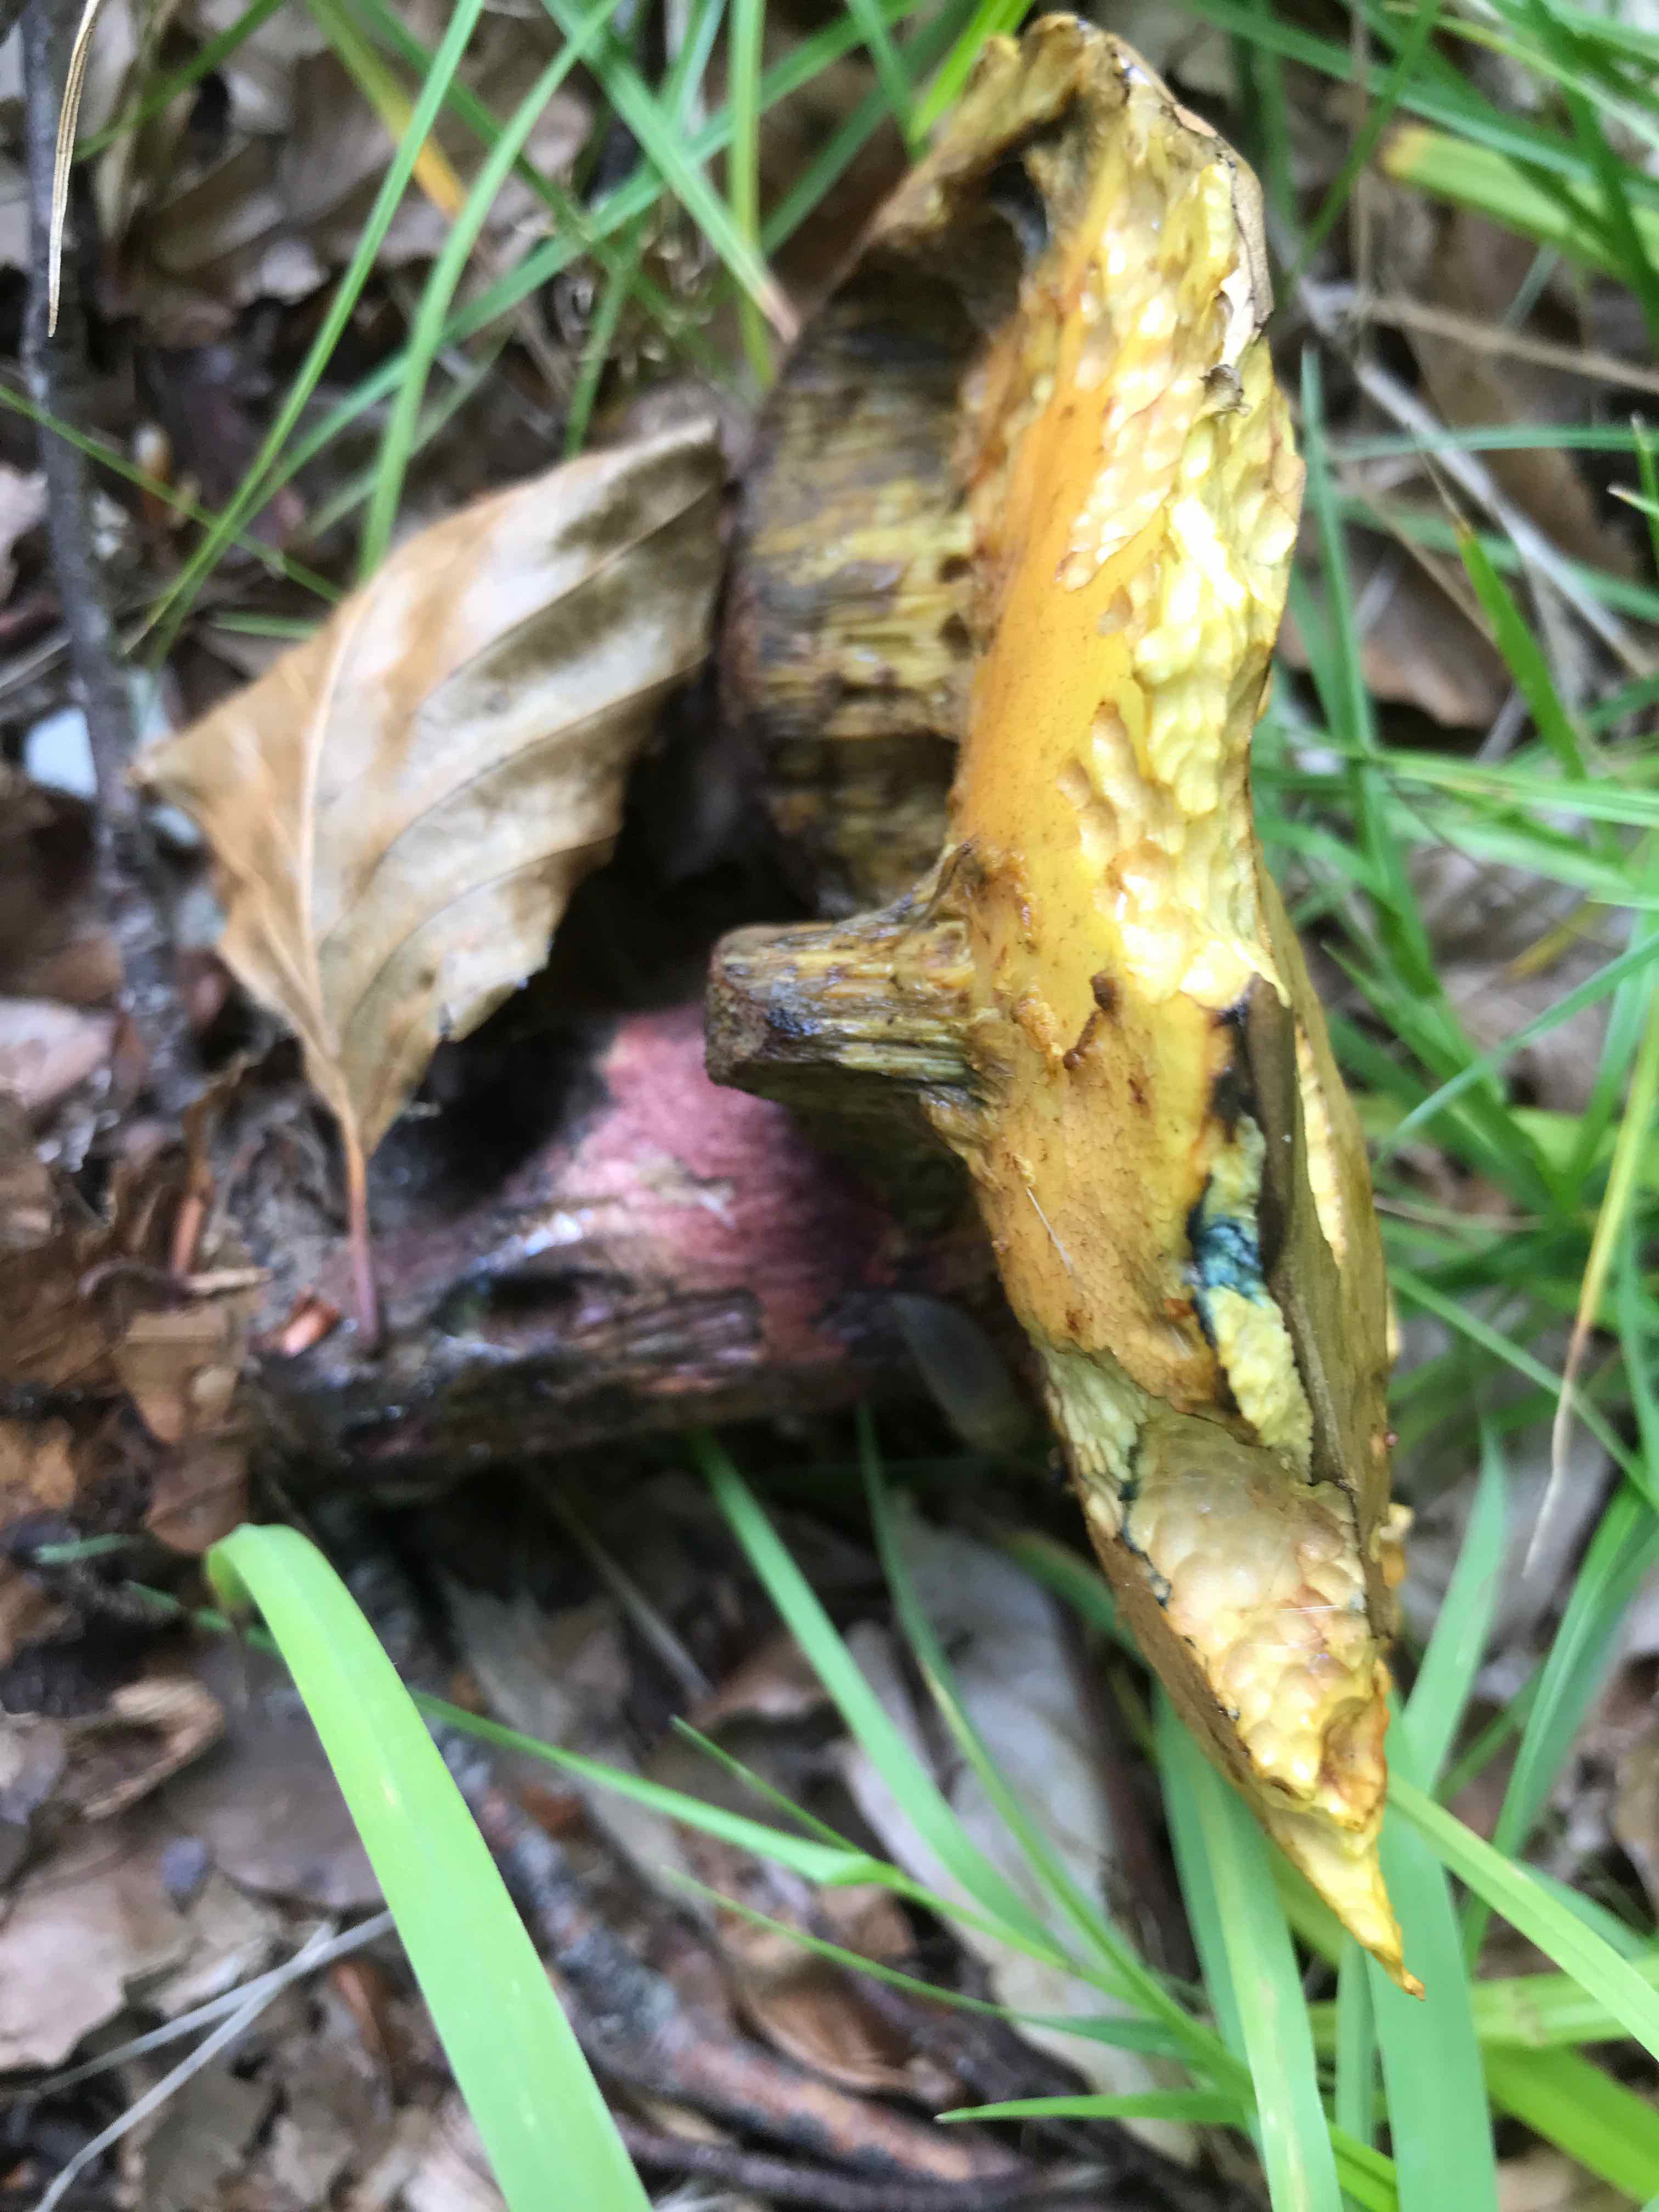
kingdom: Fungi
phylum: Basidiomycota
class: Agaricomycetes
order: Boletales
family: Boletaceae
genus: Neoboletus
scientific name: Neoboletus erythropus
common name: punktstokket indigorørhat
